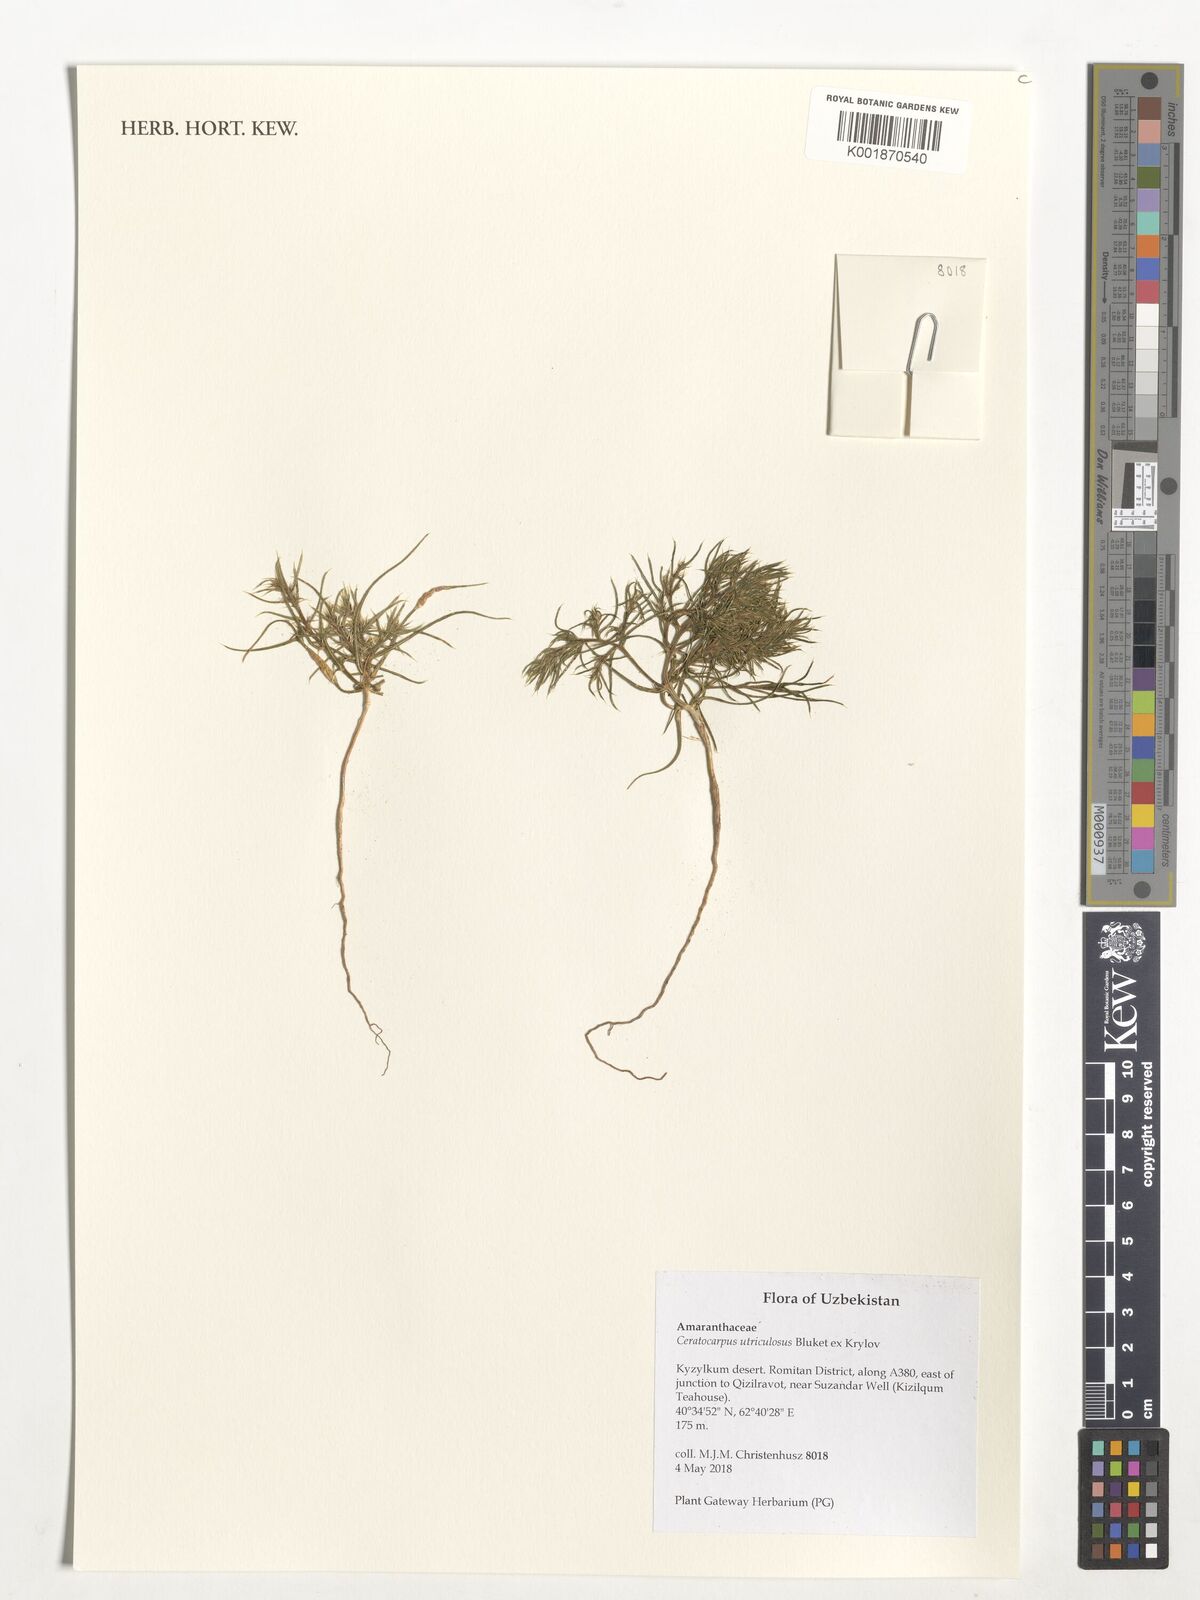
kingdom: Plantae
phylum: Tracheophyta
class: Magnoliopsida
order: Caryophyllales
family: Amaranthaceae
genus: Ceratocarpus
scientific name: Ceratocarpus arenarius
